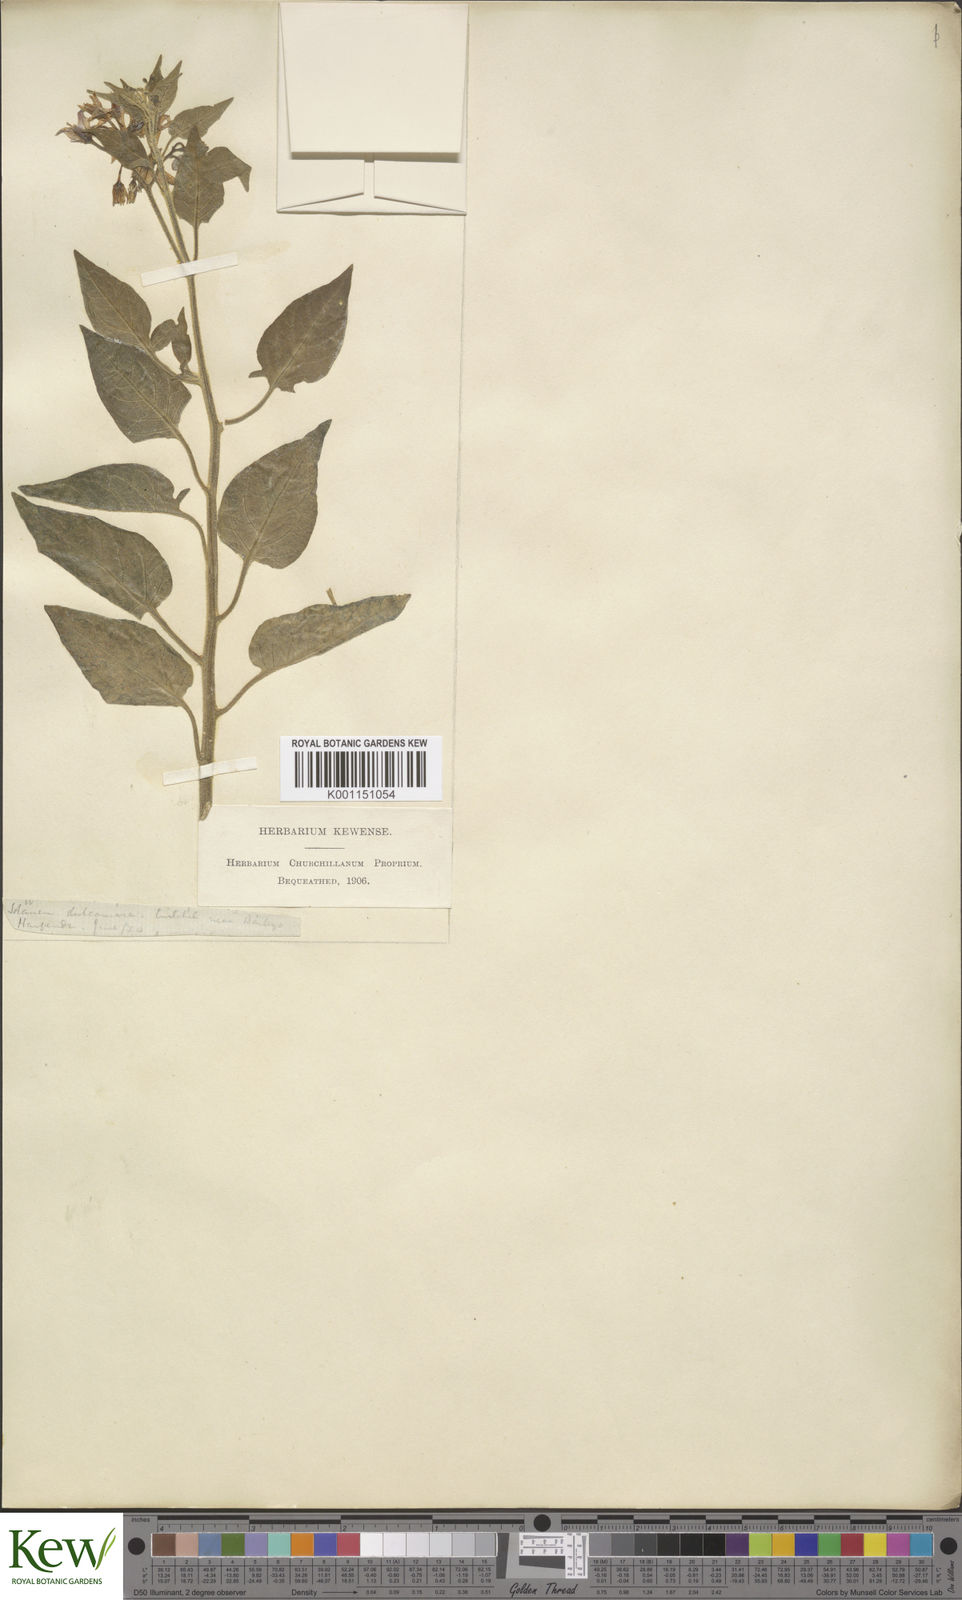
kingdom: Plantae
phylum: Tracheophyta
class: Magnoliopsida
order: Solanales
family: Solanaceae
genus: Solanum
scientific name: Solanum dulcamara
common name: Climbing nightshade
